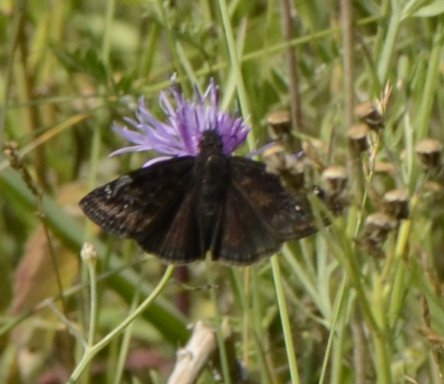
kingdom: Animalia
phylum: Arthropoda
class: Insecta
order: Lepidoptera
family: Hesperiidae
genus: Gesta
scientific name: Gesta
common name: Wild Indigo Duskywing
